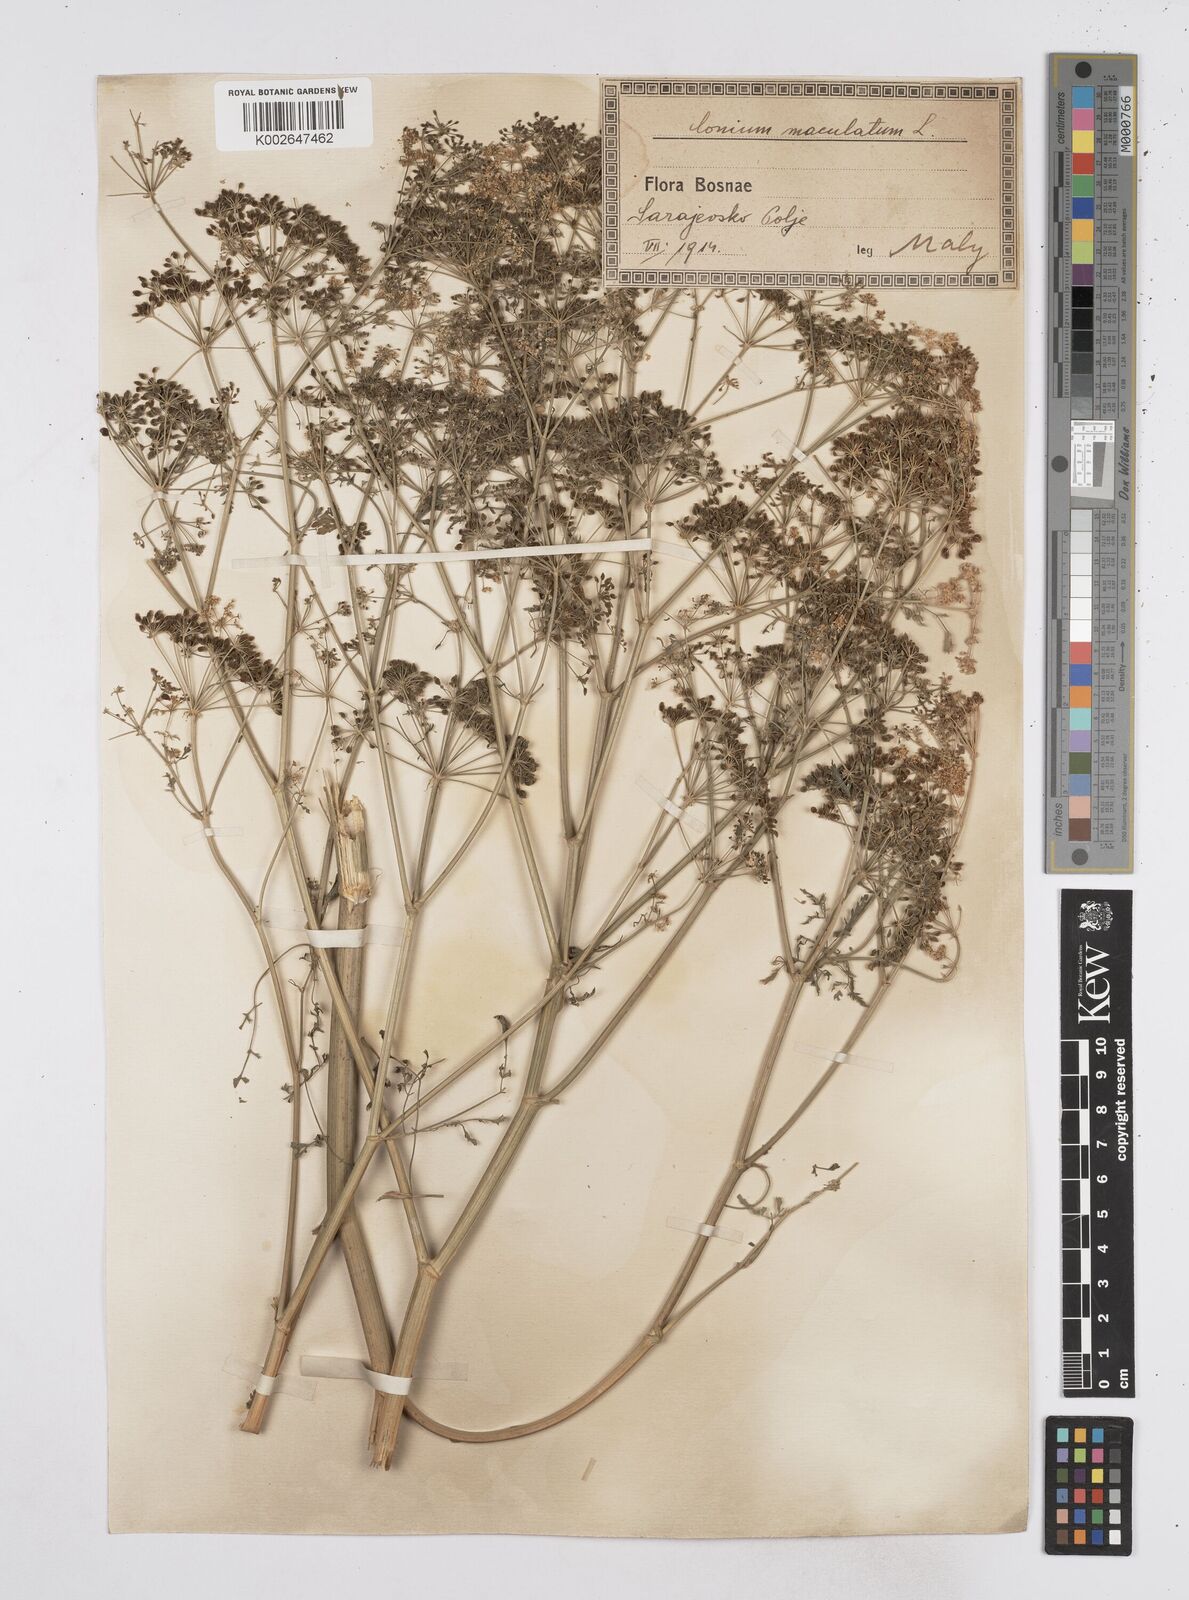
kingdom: Plantae
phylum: Tracheophyta
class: Magnoliopsida
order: Apiales
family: Apiaceae
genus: Conium
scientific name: Conium maculatum
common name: Hemlock
